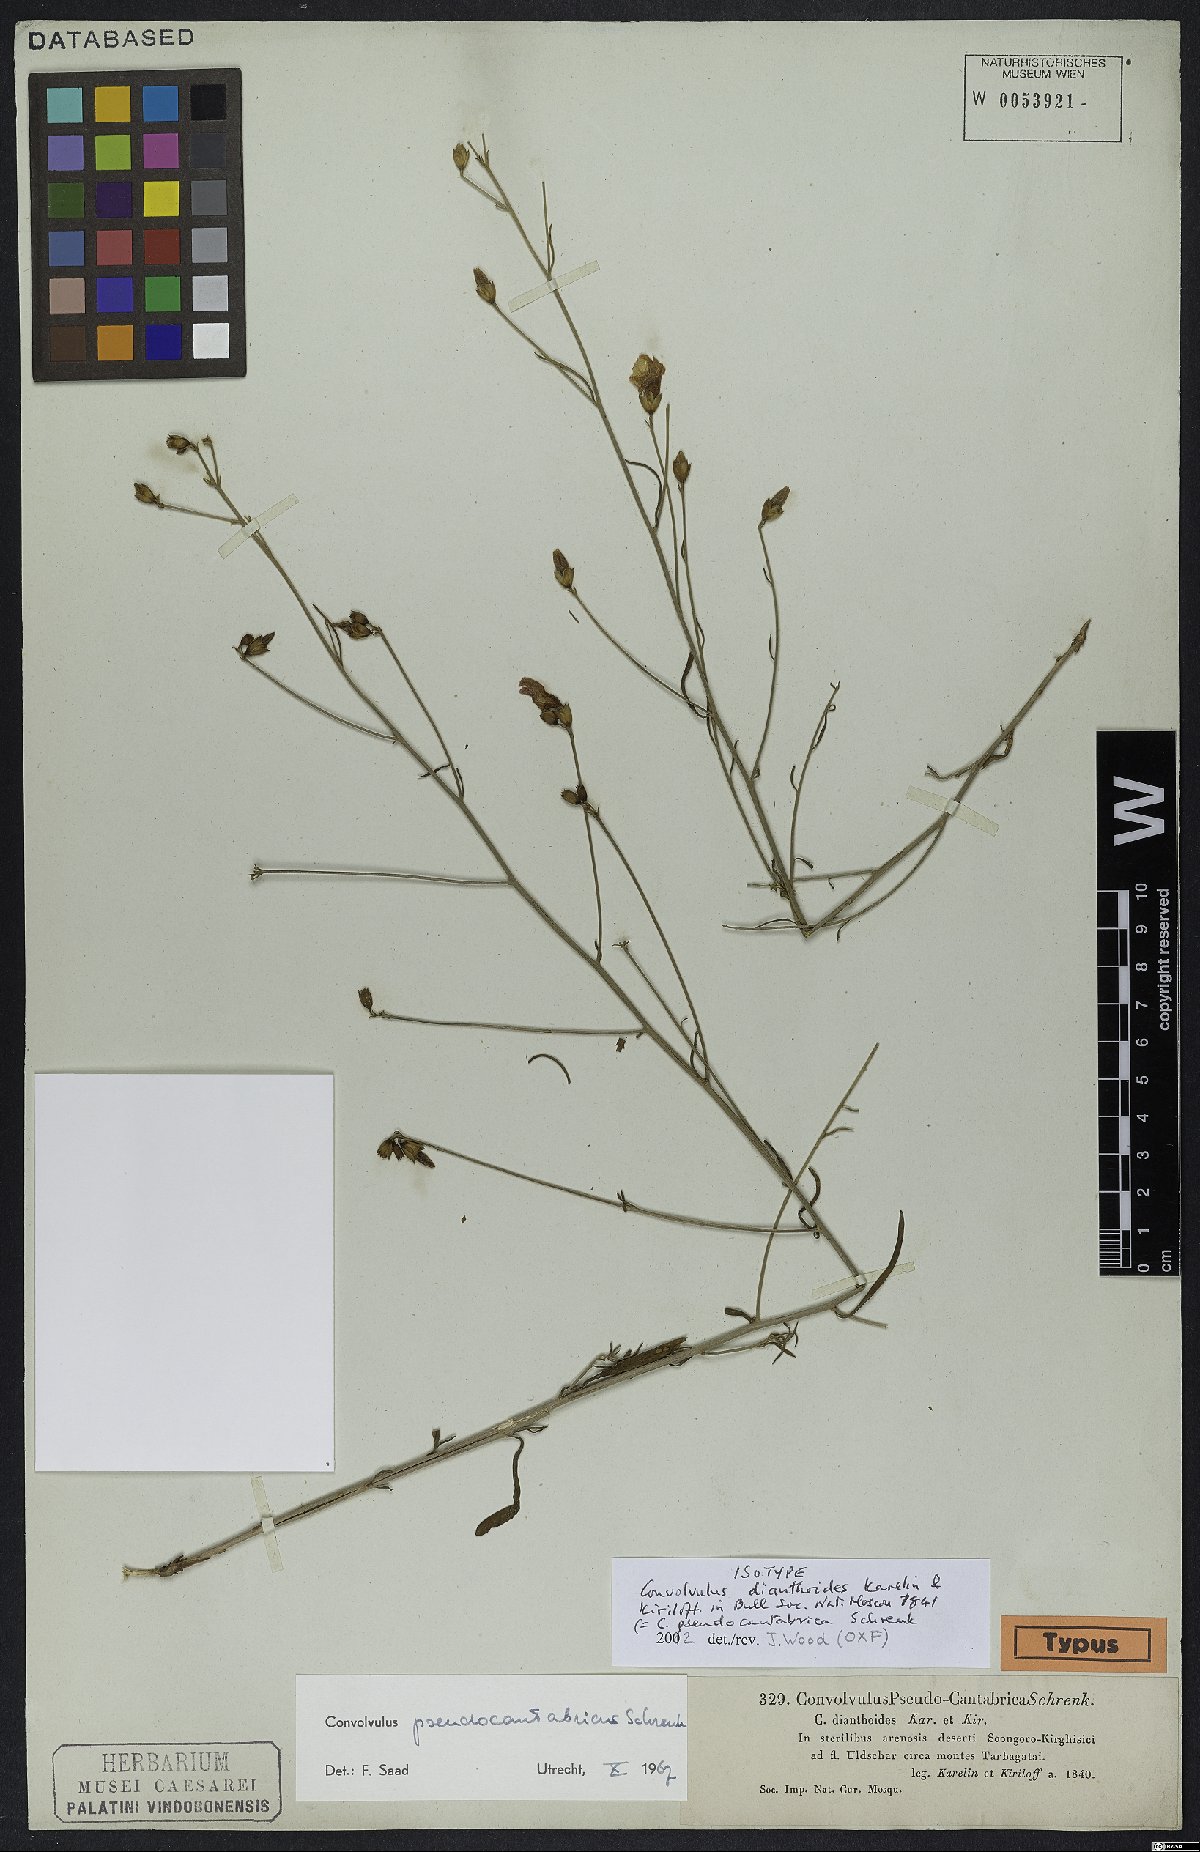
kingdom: Plantae
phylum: Tracheophyta
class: Magnoliopsida
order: Solanales
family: Convolvulaceae
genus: Convolvulus
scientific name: Convolvulus pseudocantabrica
